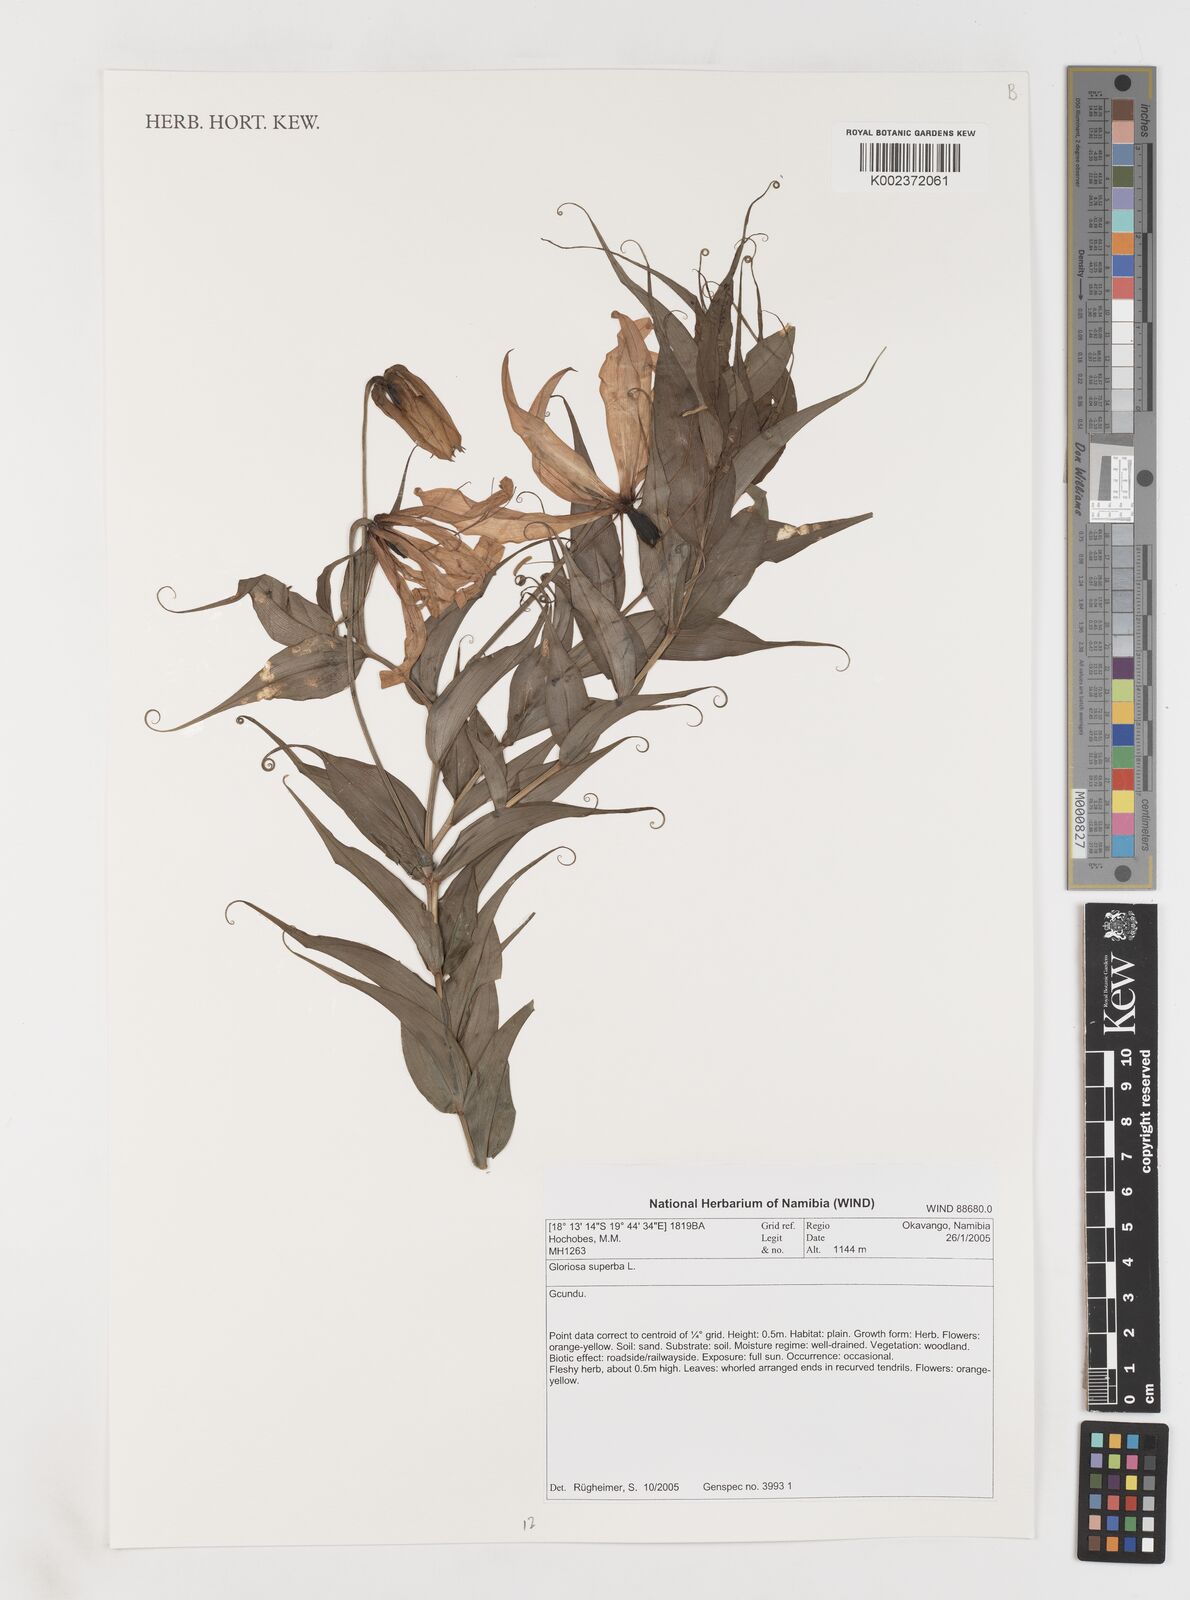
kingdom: Plantae
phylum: Tracheophyta
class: Liliopsida
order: Liliales
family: Colchicaceae
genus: Gloriosa
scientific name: Gloriosa simplex
